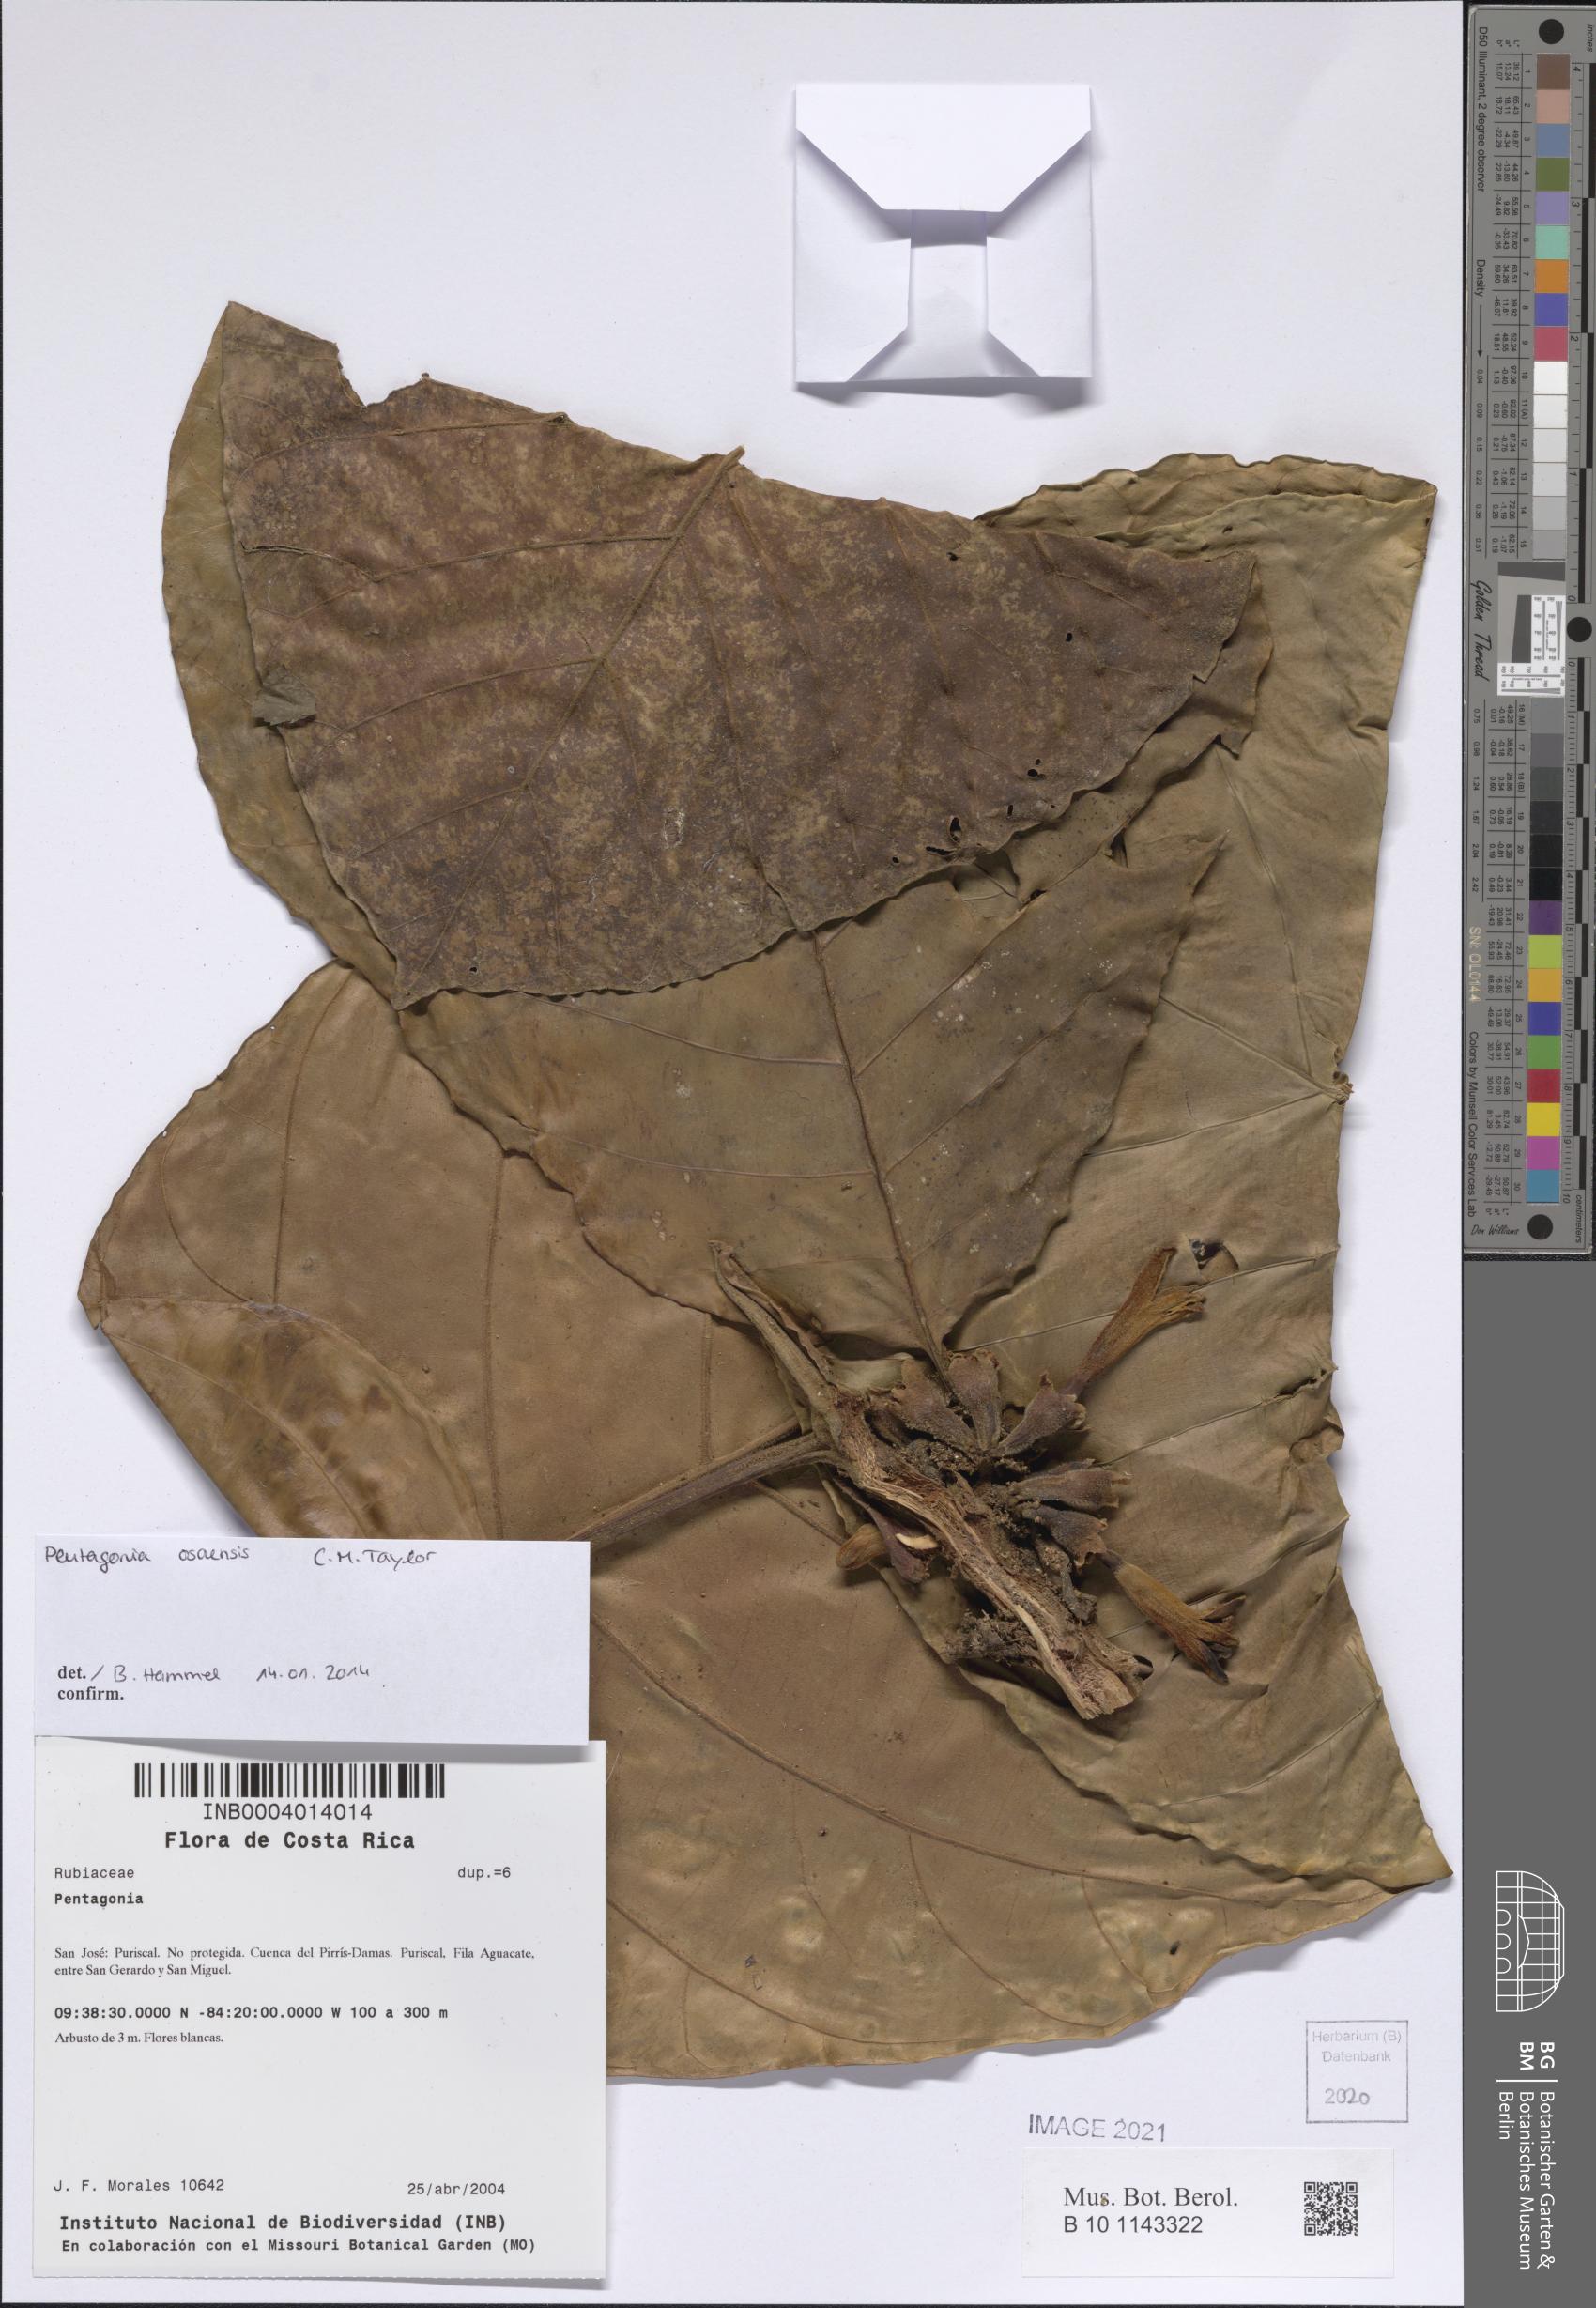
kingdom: Plantae
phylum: Tracheophyta
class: Magnoliopsida
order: Gentianales
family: Rubiaceae
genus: Pentagonia
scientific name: Pentagonia osaensis
